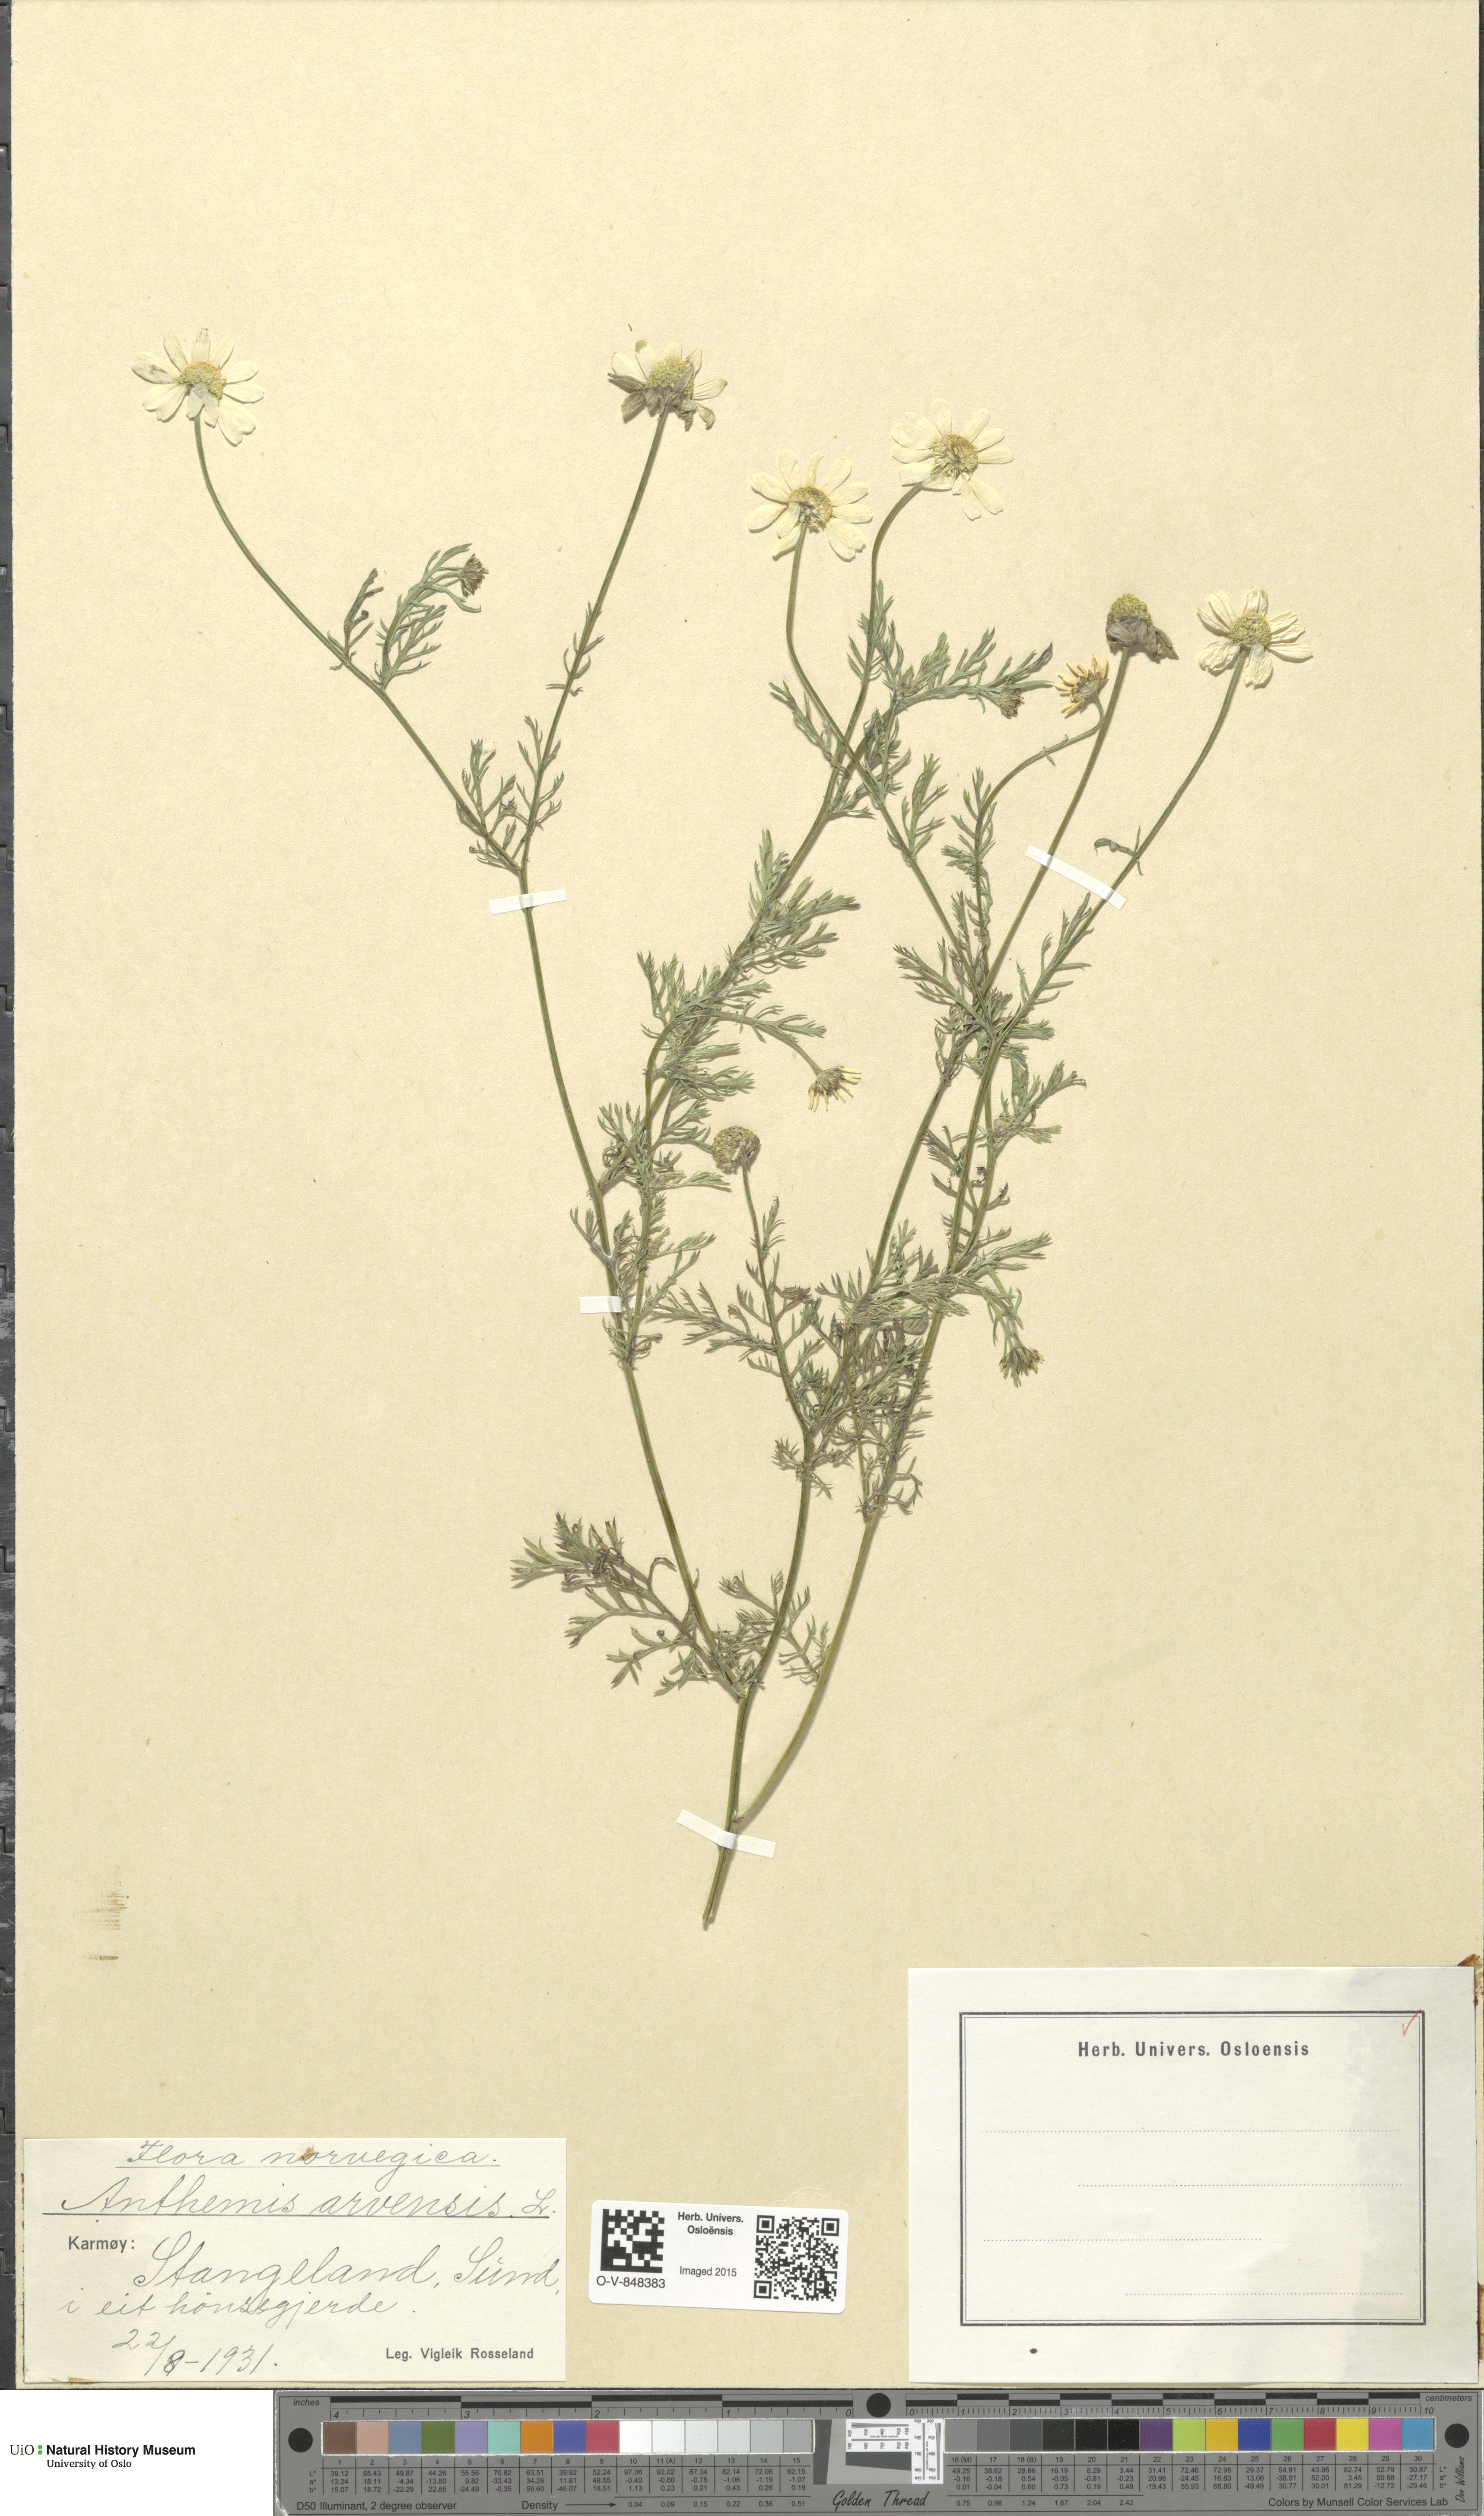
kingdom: Plantae
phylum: Tracheophyta
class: Magnoliopsida
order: Asterales
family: Asteraceae
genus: Anthemis
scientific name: Anthemis arvensis
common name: Corn chamomile
